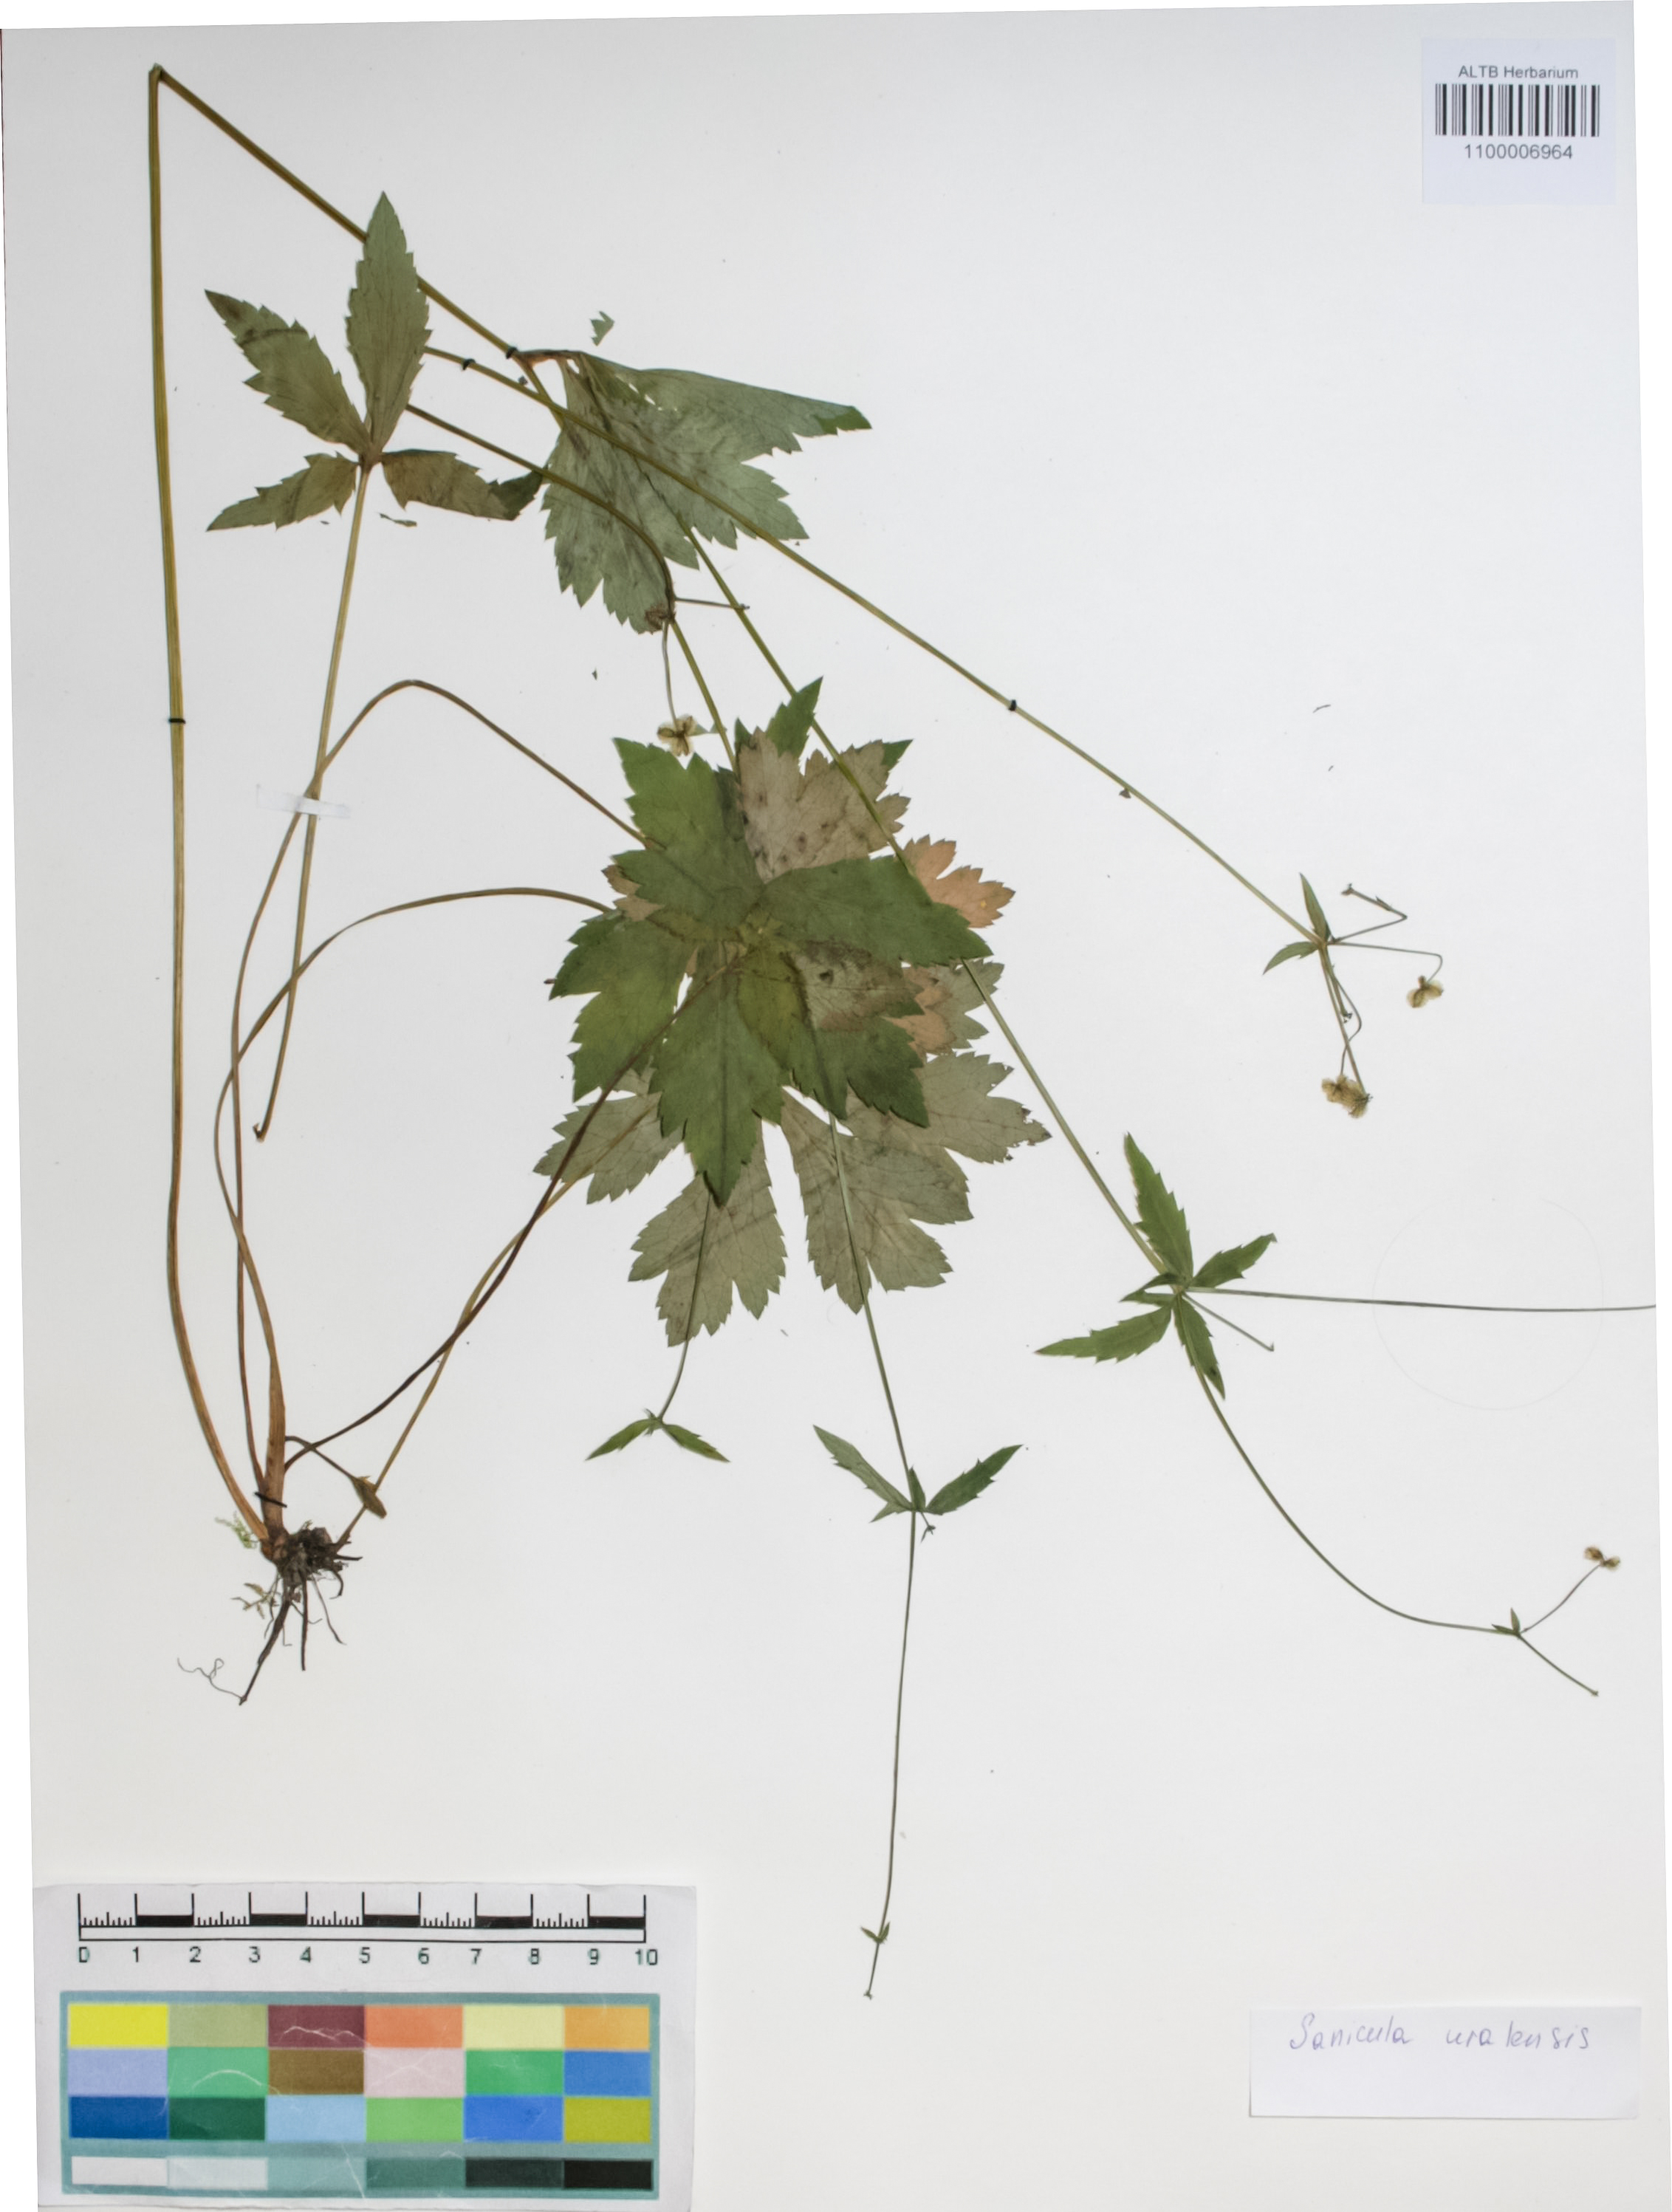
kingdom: Plantae
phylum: Tracheophyta
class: Magnoliopsida
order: Apiales
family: Apiaceae
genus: Sanicula
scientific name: Sanicula giraldii
